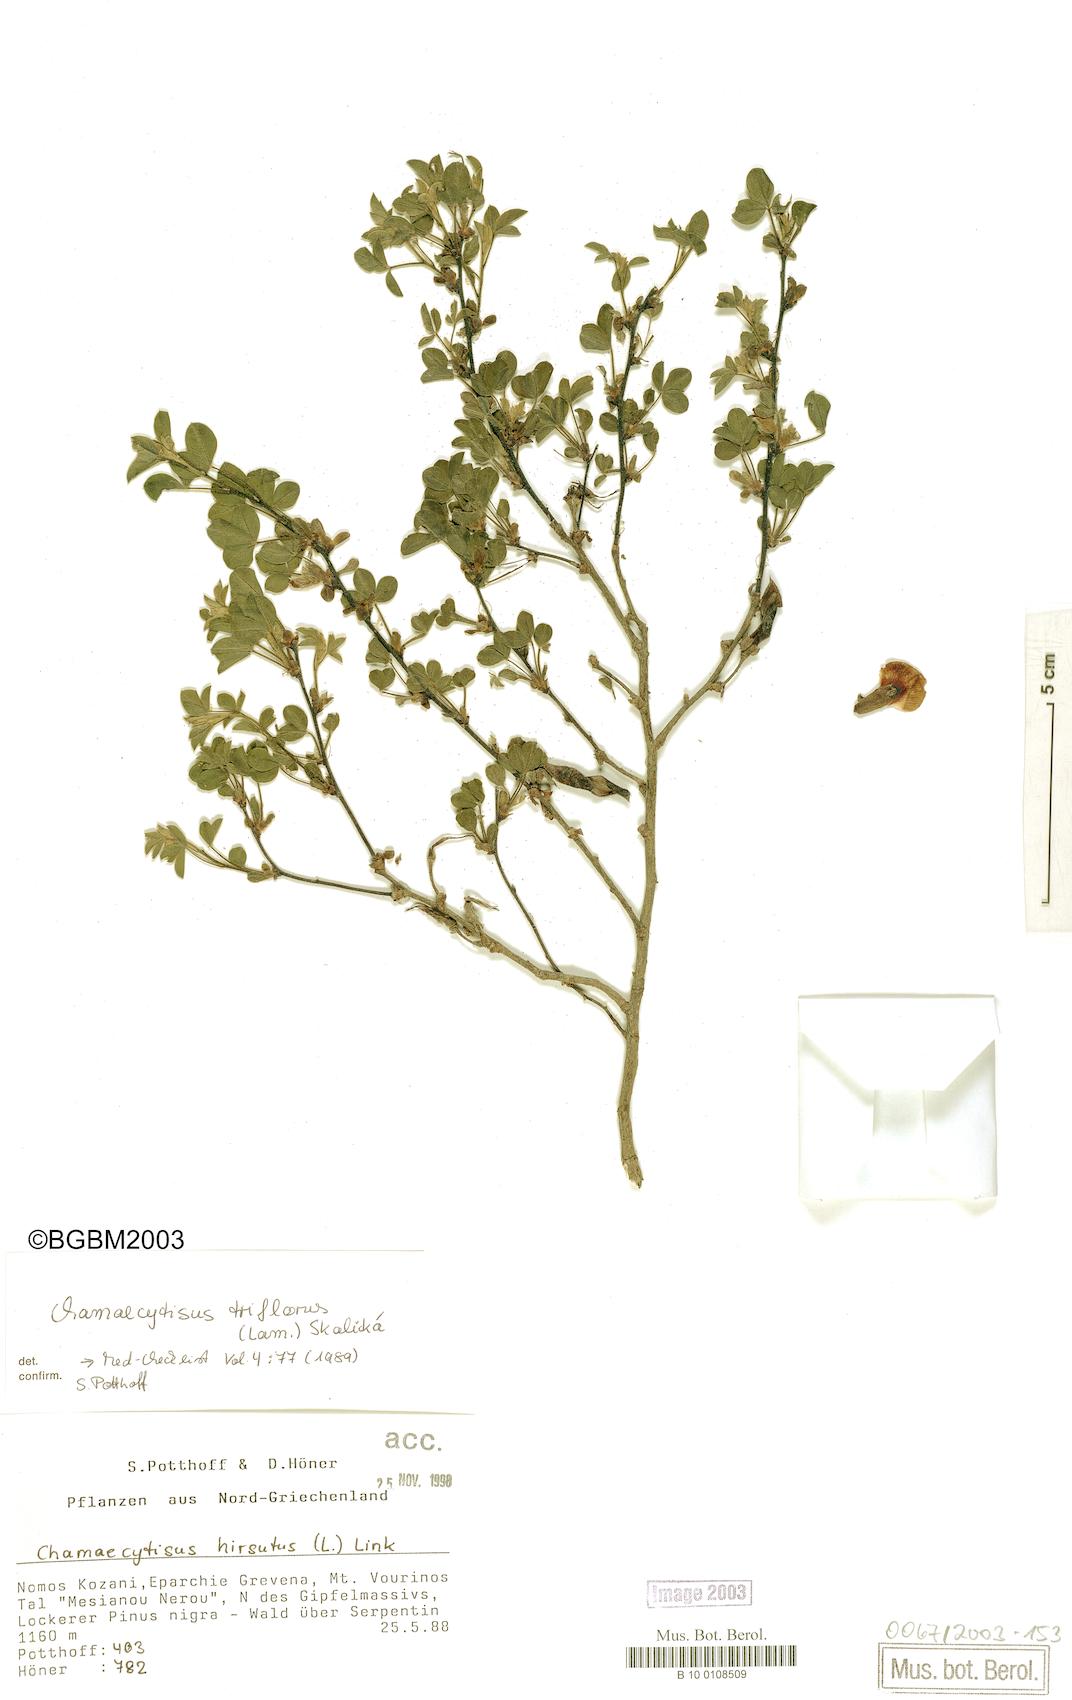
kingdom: Plantae
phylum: Tracheophyta
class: Magnoliopsida
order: Fabales
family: Fabaceae
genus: Chamaecytisus
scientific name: Chamaecytisus triflorus
